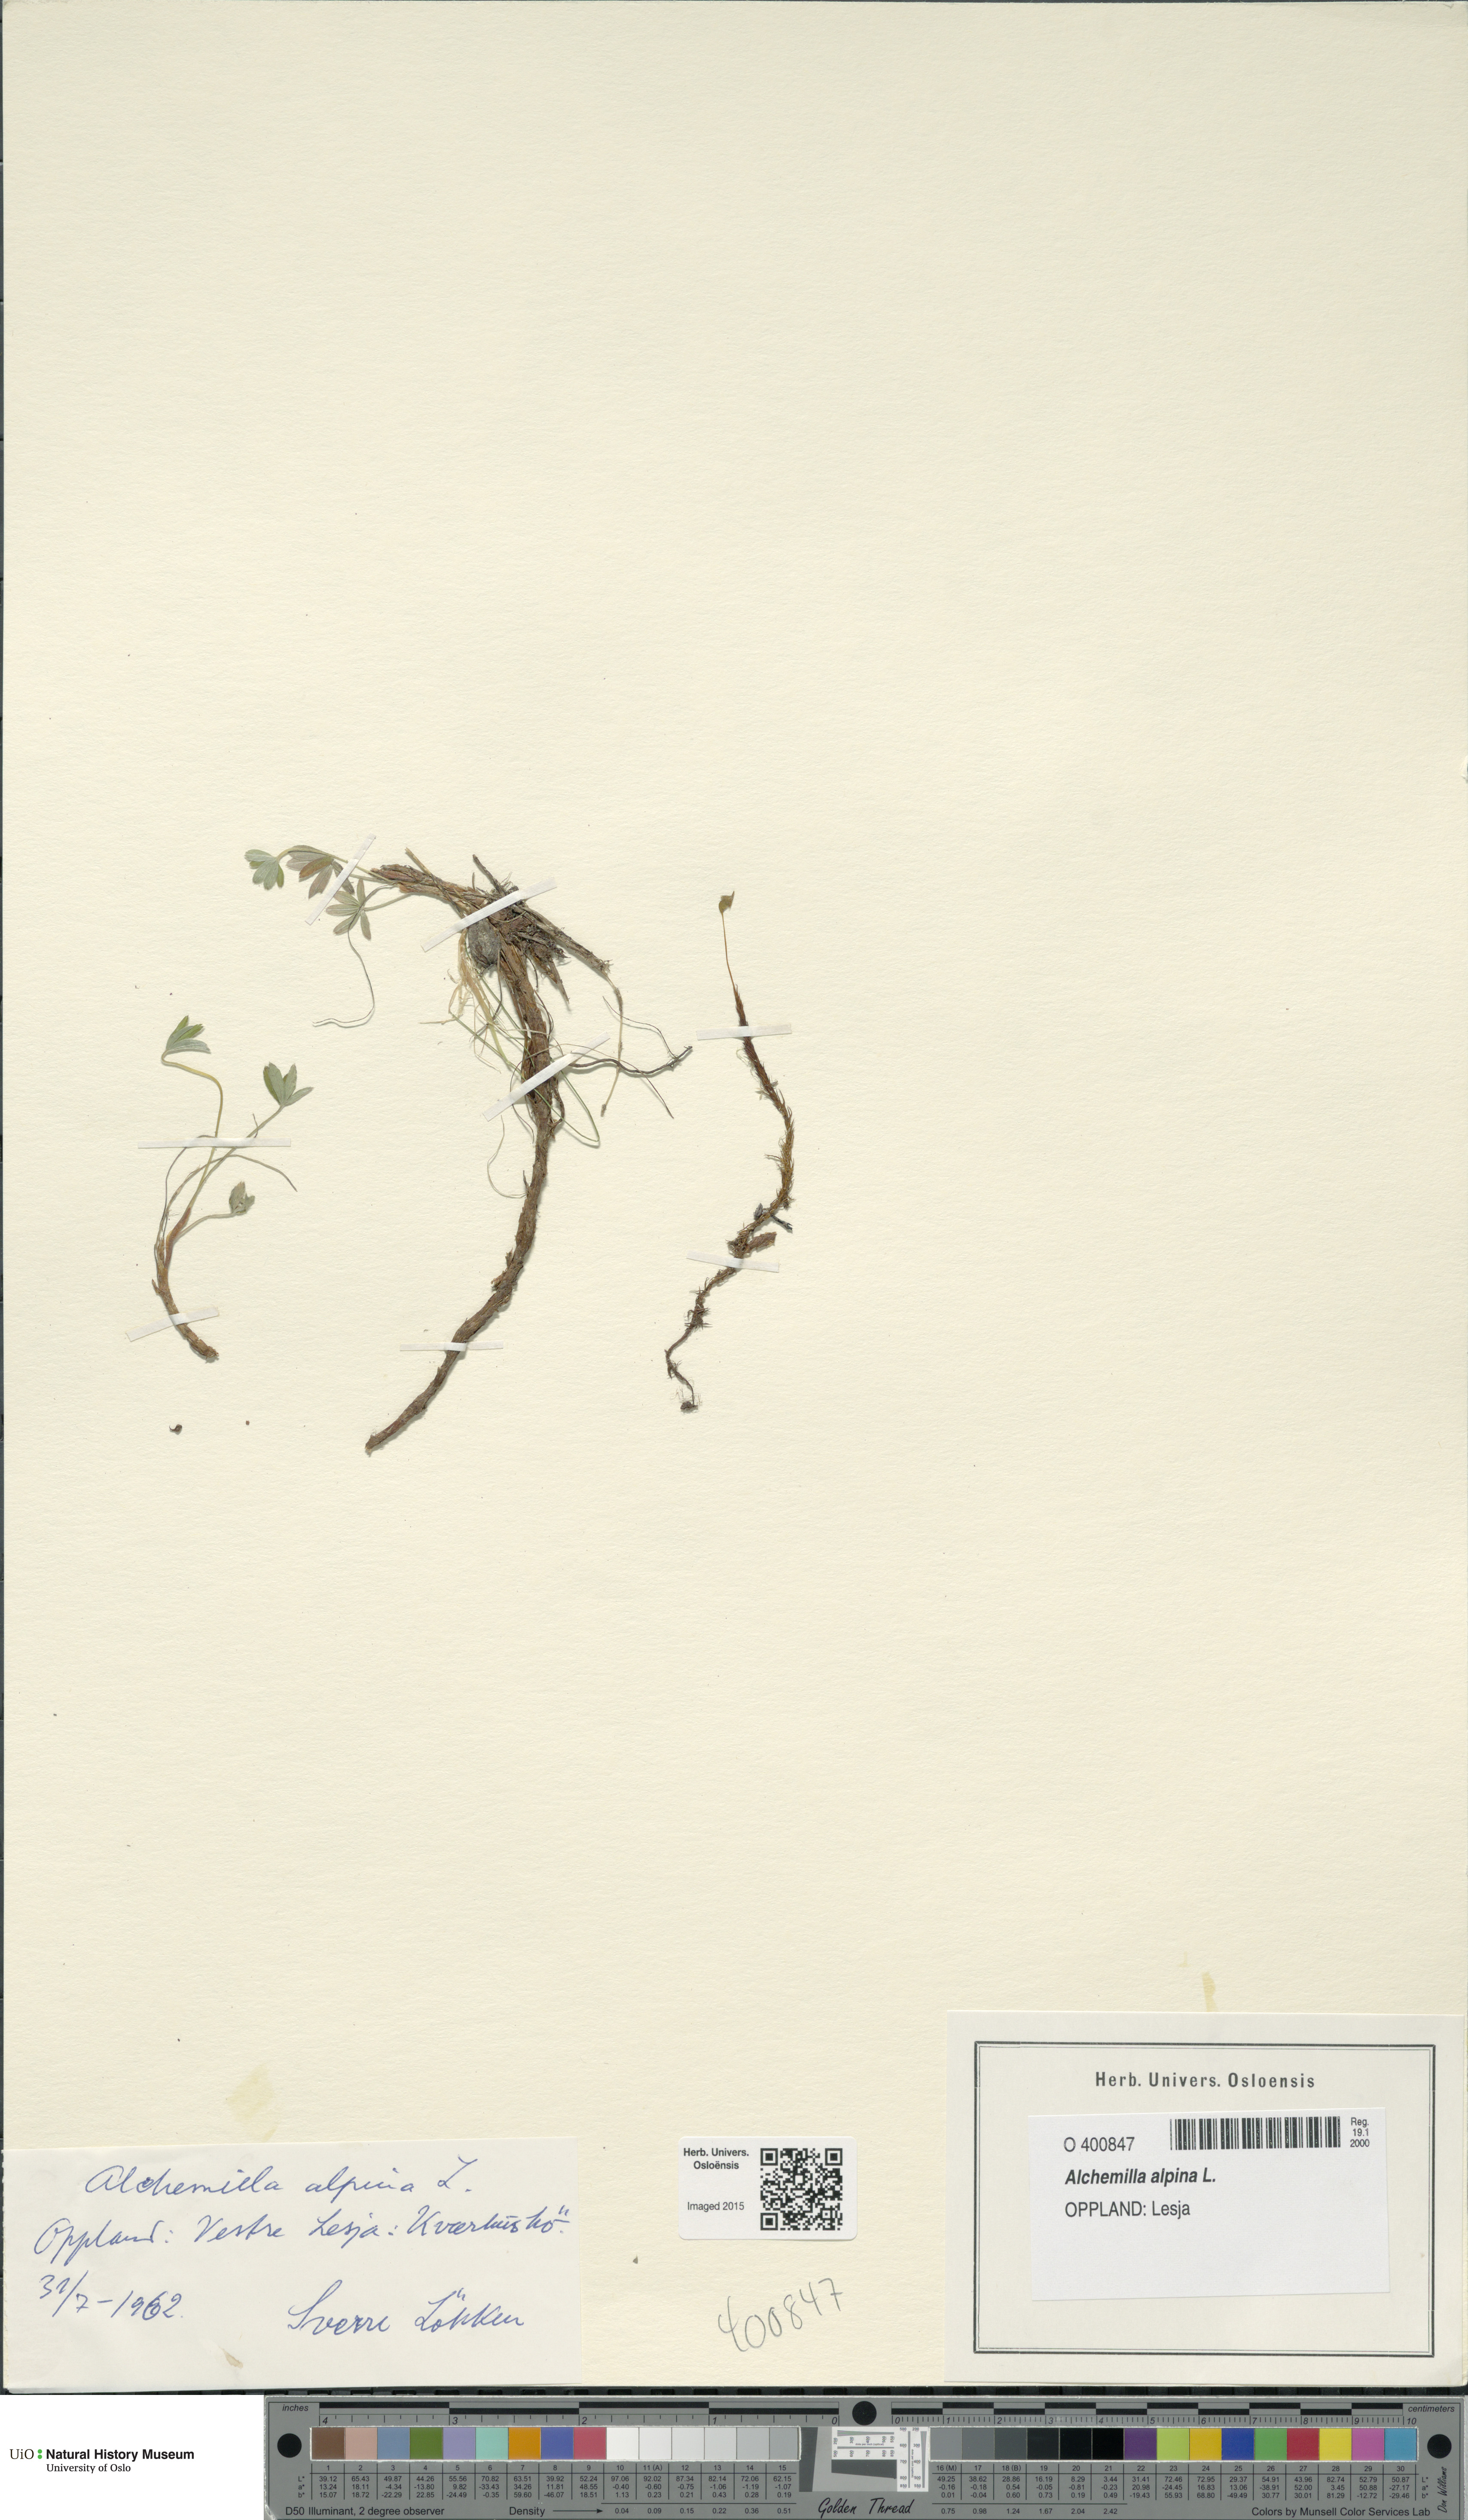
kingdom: Plantae
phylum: Tracheophyta
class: Magnoliopsida
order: Rosales
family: Rosaceae
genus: Alchemilla
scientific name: Alchemilla alpina
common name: Alpine lady's-mantle
